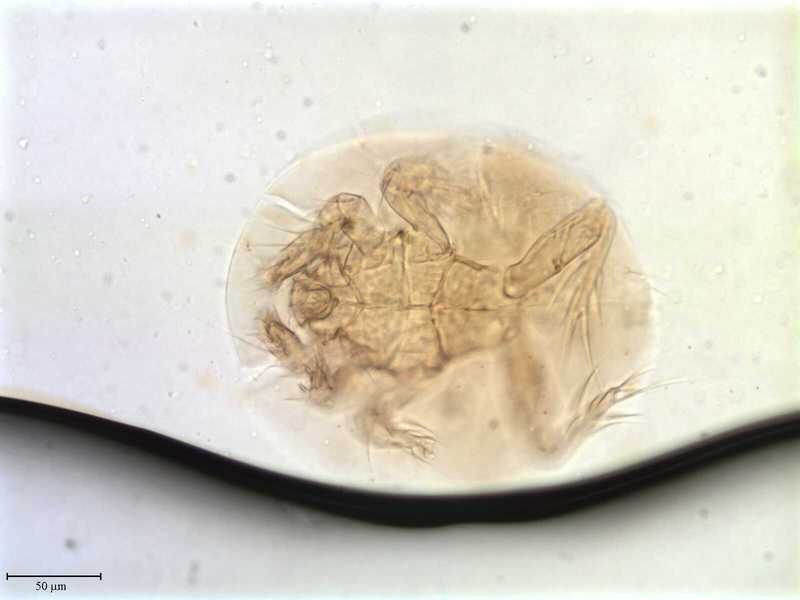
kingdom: Animalia
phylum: Arthropoda
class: Arachnida
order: Trombidiformes
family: Scutacaridae
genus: Scutacarus
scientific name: Scutacarus
